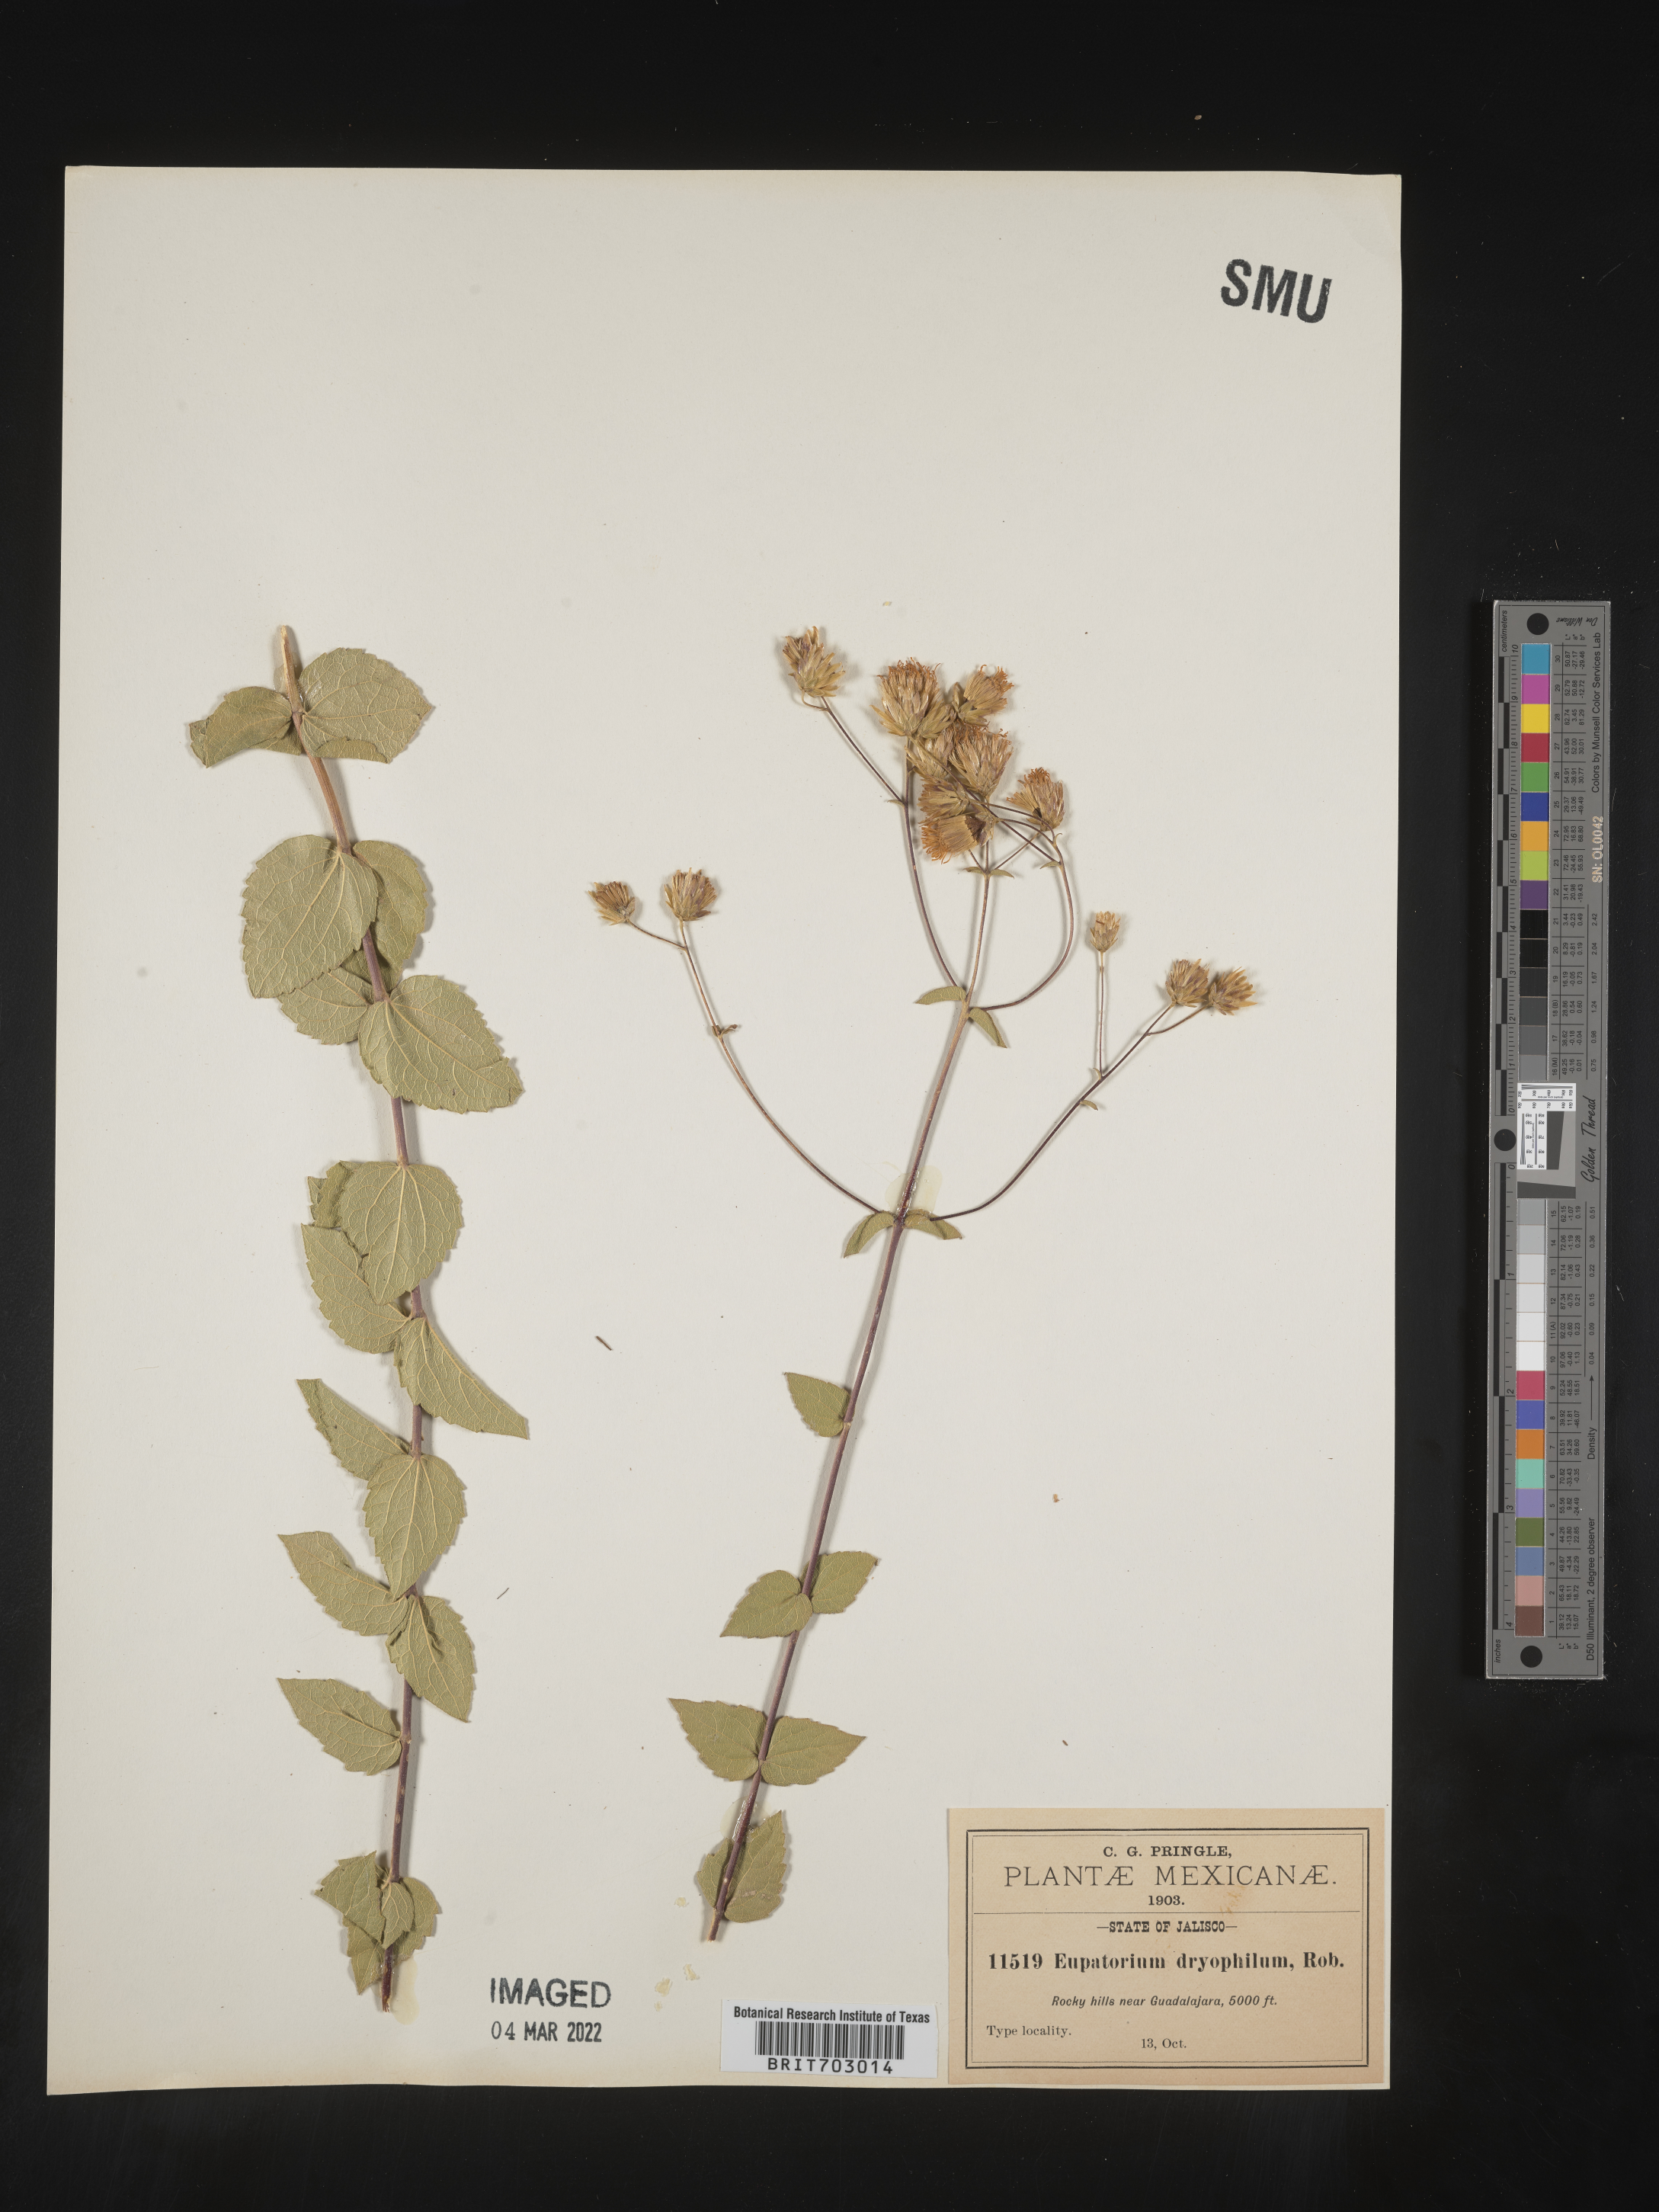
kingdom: Plantae
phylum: Tracheophyta
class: Magnoliopsida
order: Asterales
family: Asteraceae
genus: Eupatorium
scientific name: Eupatorium
